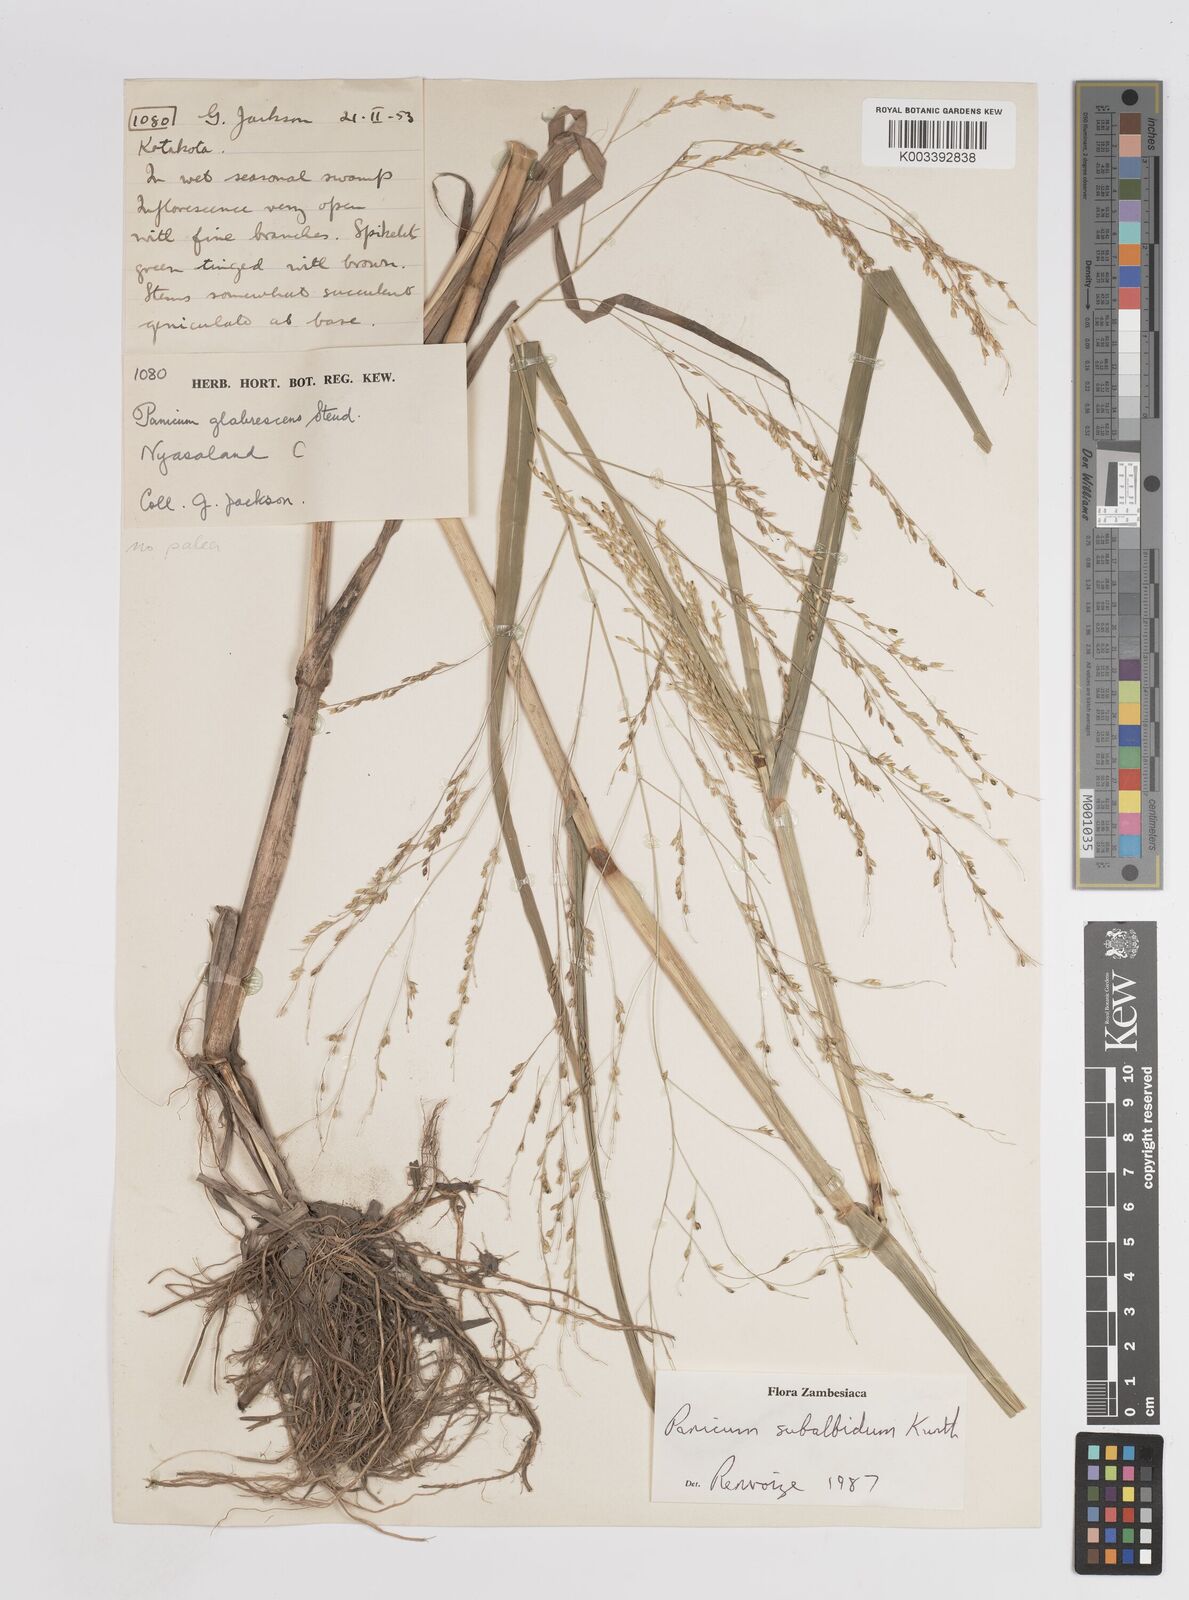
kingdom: Plantae
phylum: Tracheophyta
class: Liliopsida
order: Poales
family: Poaceae
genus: Panicum
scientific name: Panicum subalbidum
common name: Elbow buffalo grass
